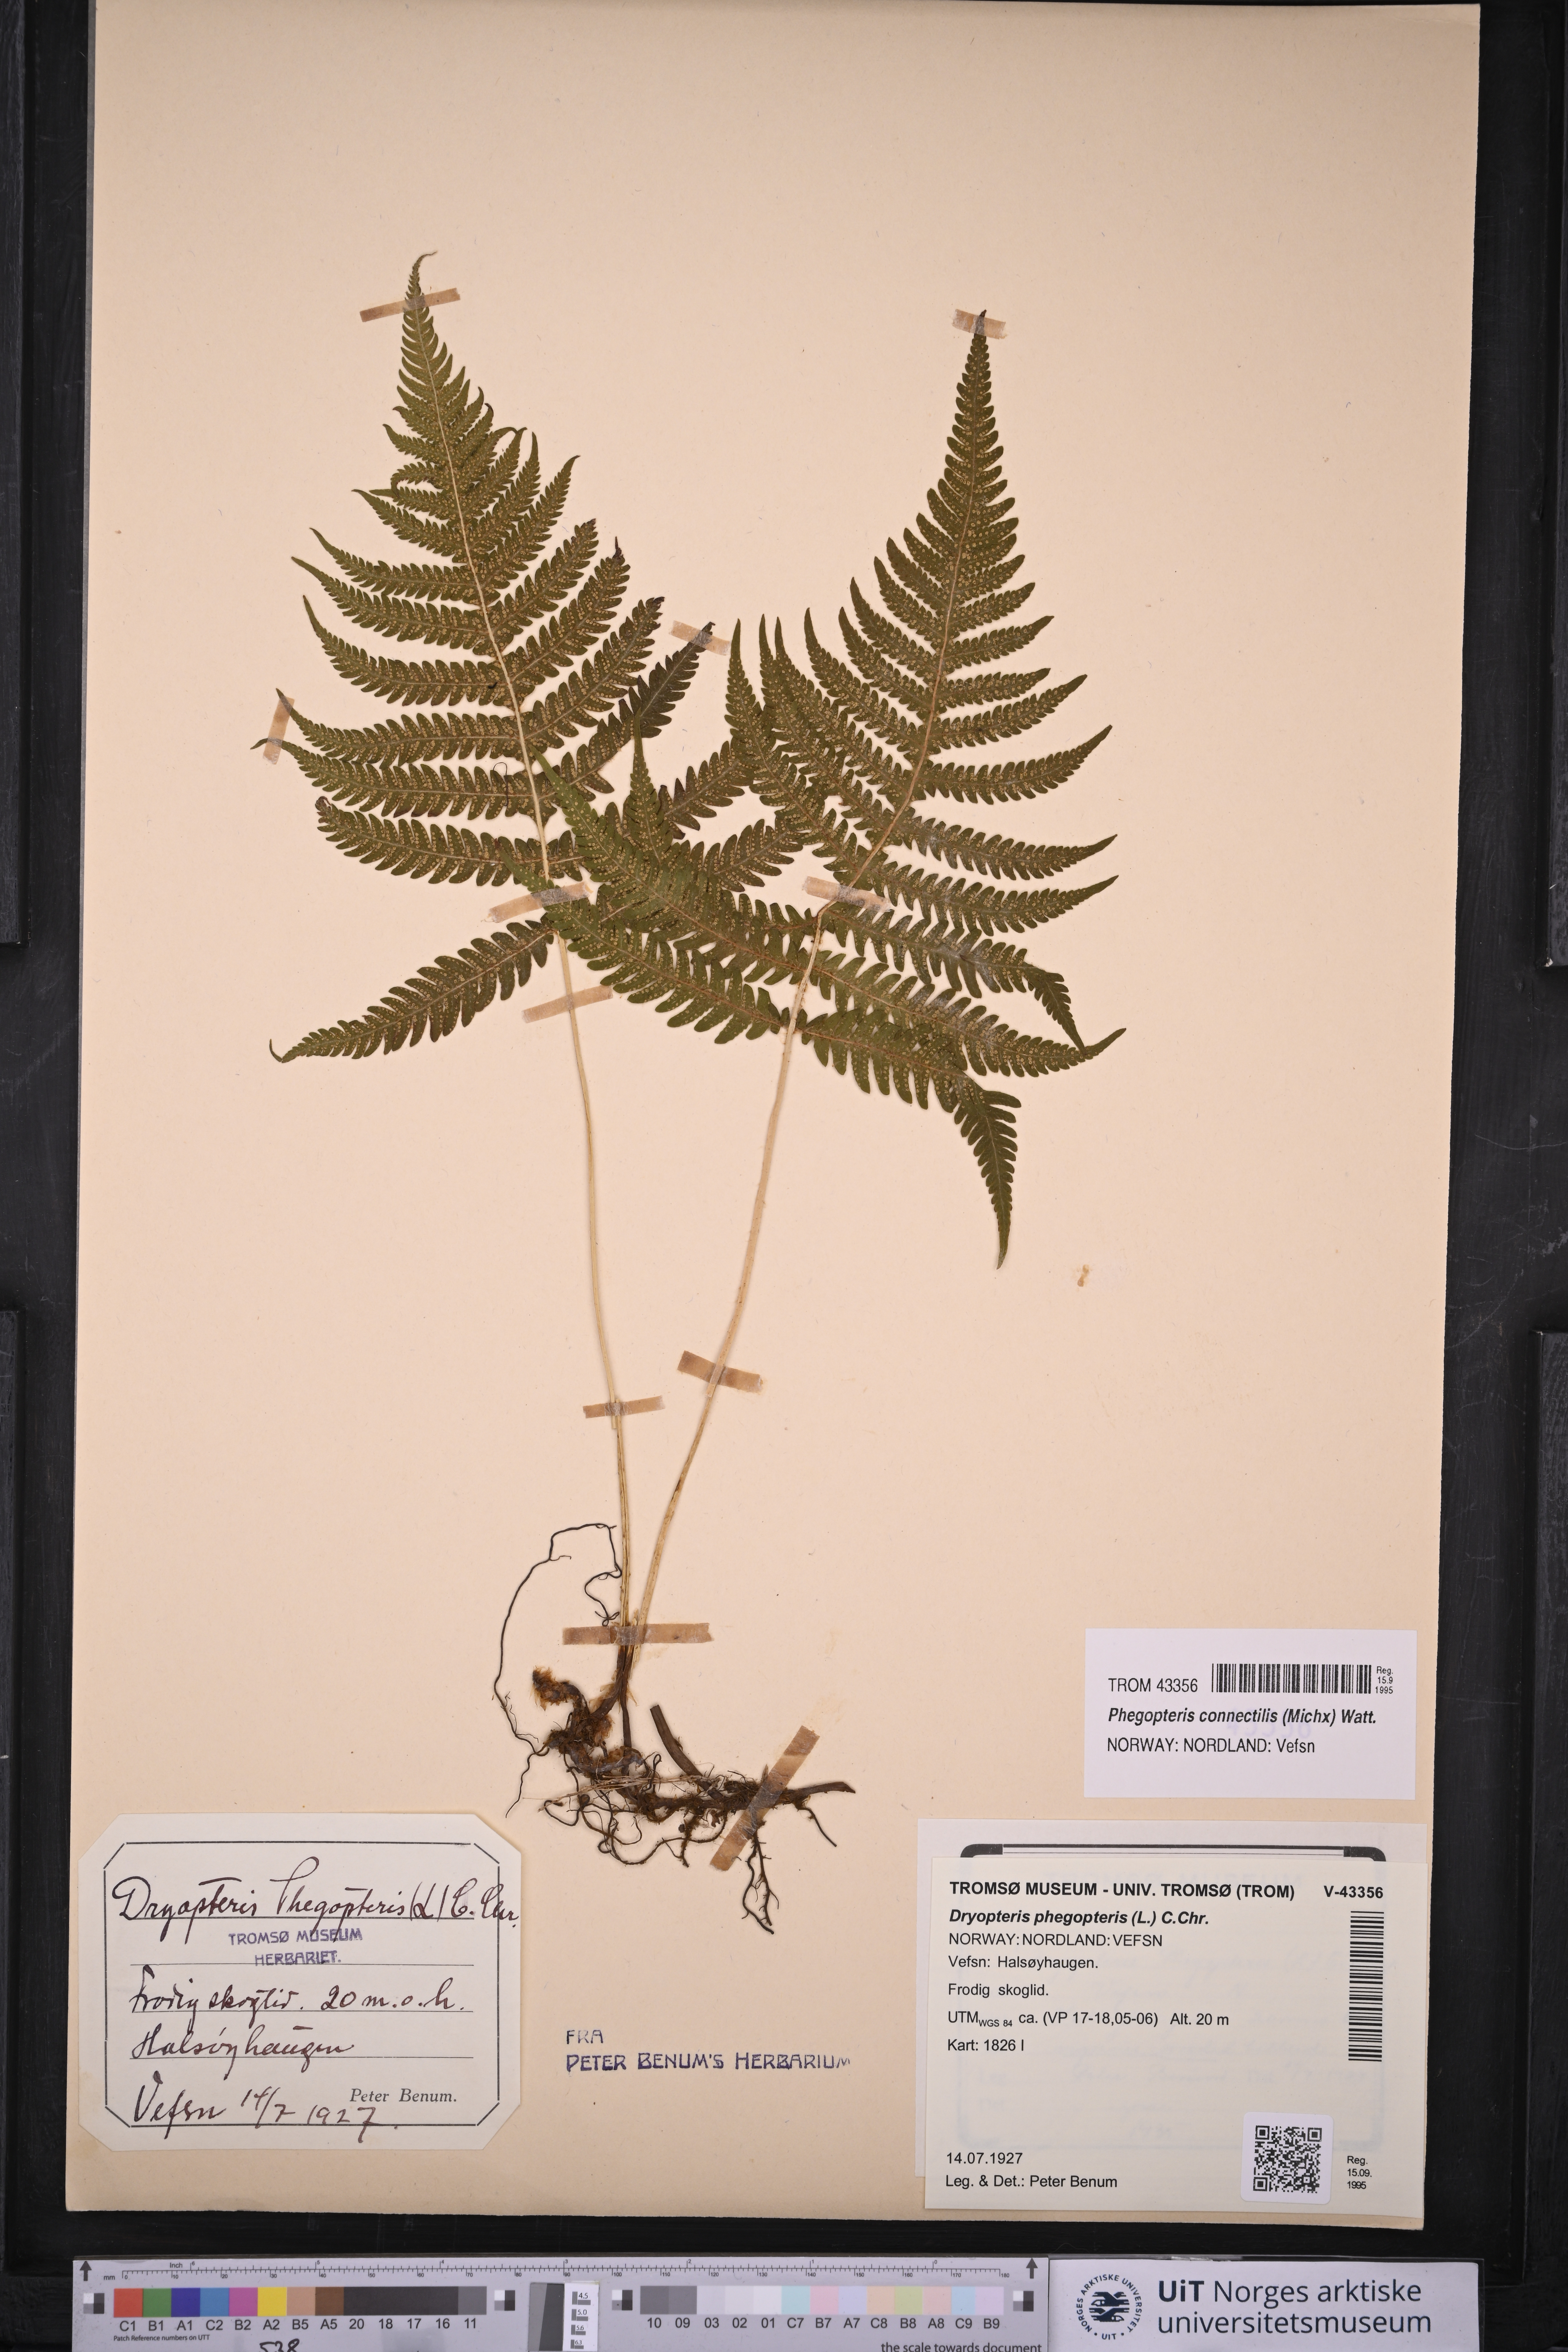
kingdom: Plantae
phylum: Tracheophyta
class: Polypodiopsida
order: Polypodiales
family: Thelypteridaceae
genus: Phegopteris
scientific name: Phegopteris connectilis
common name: Beech fern
